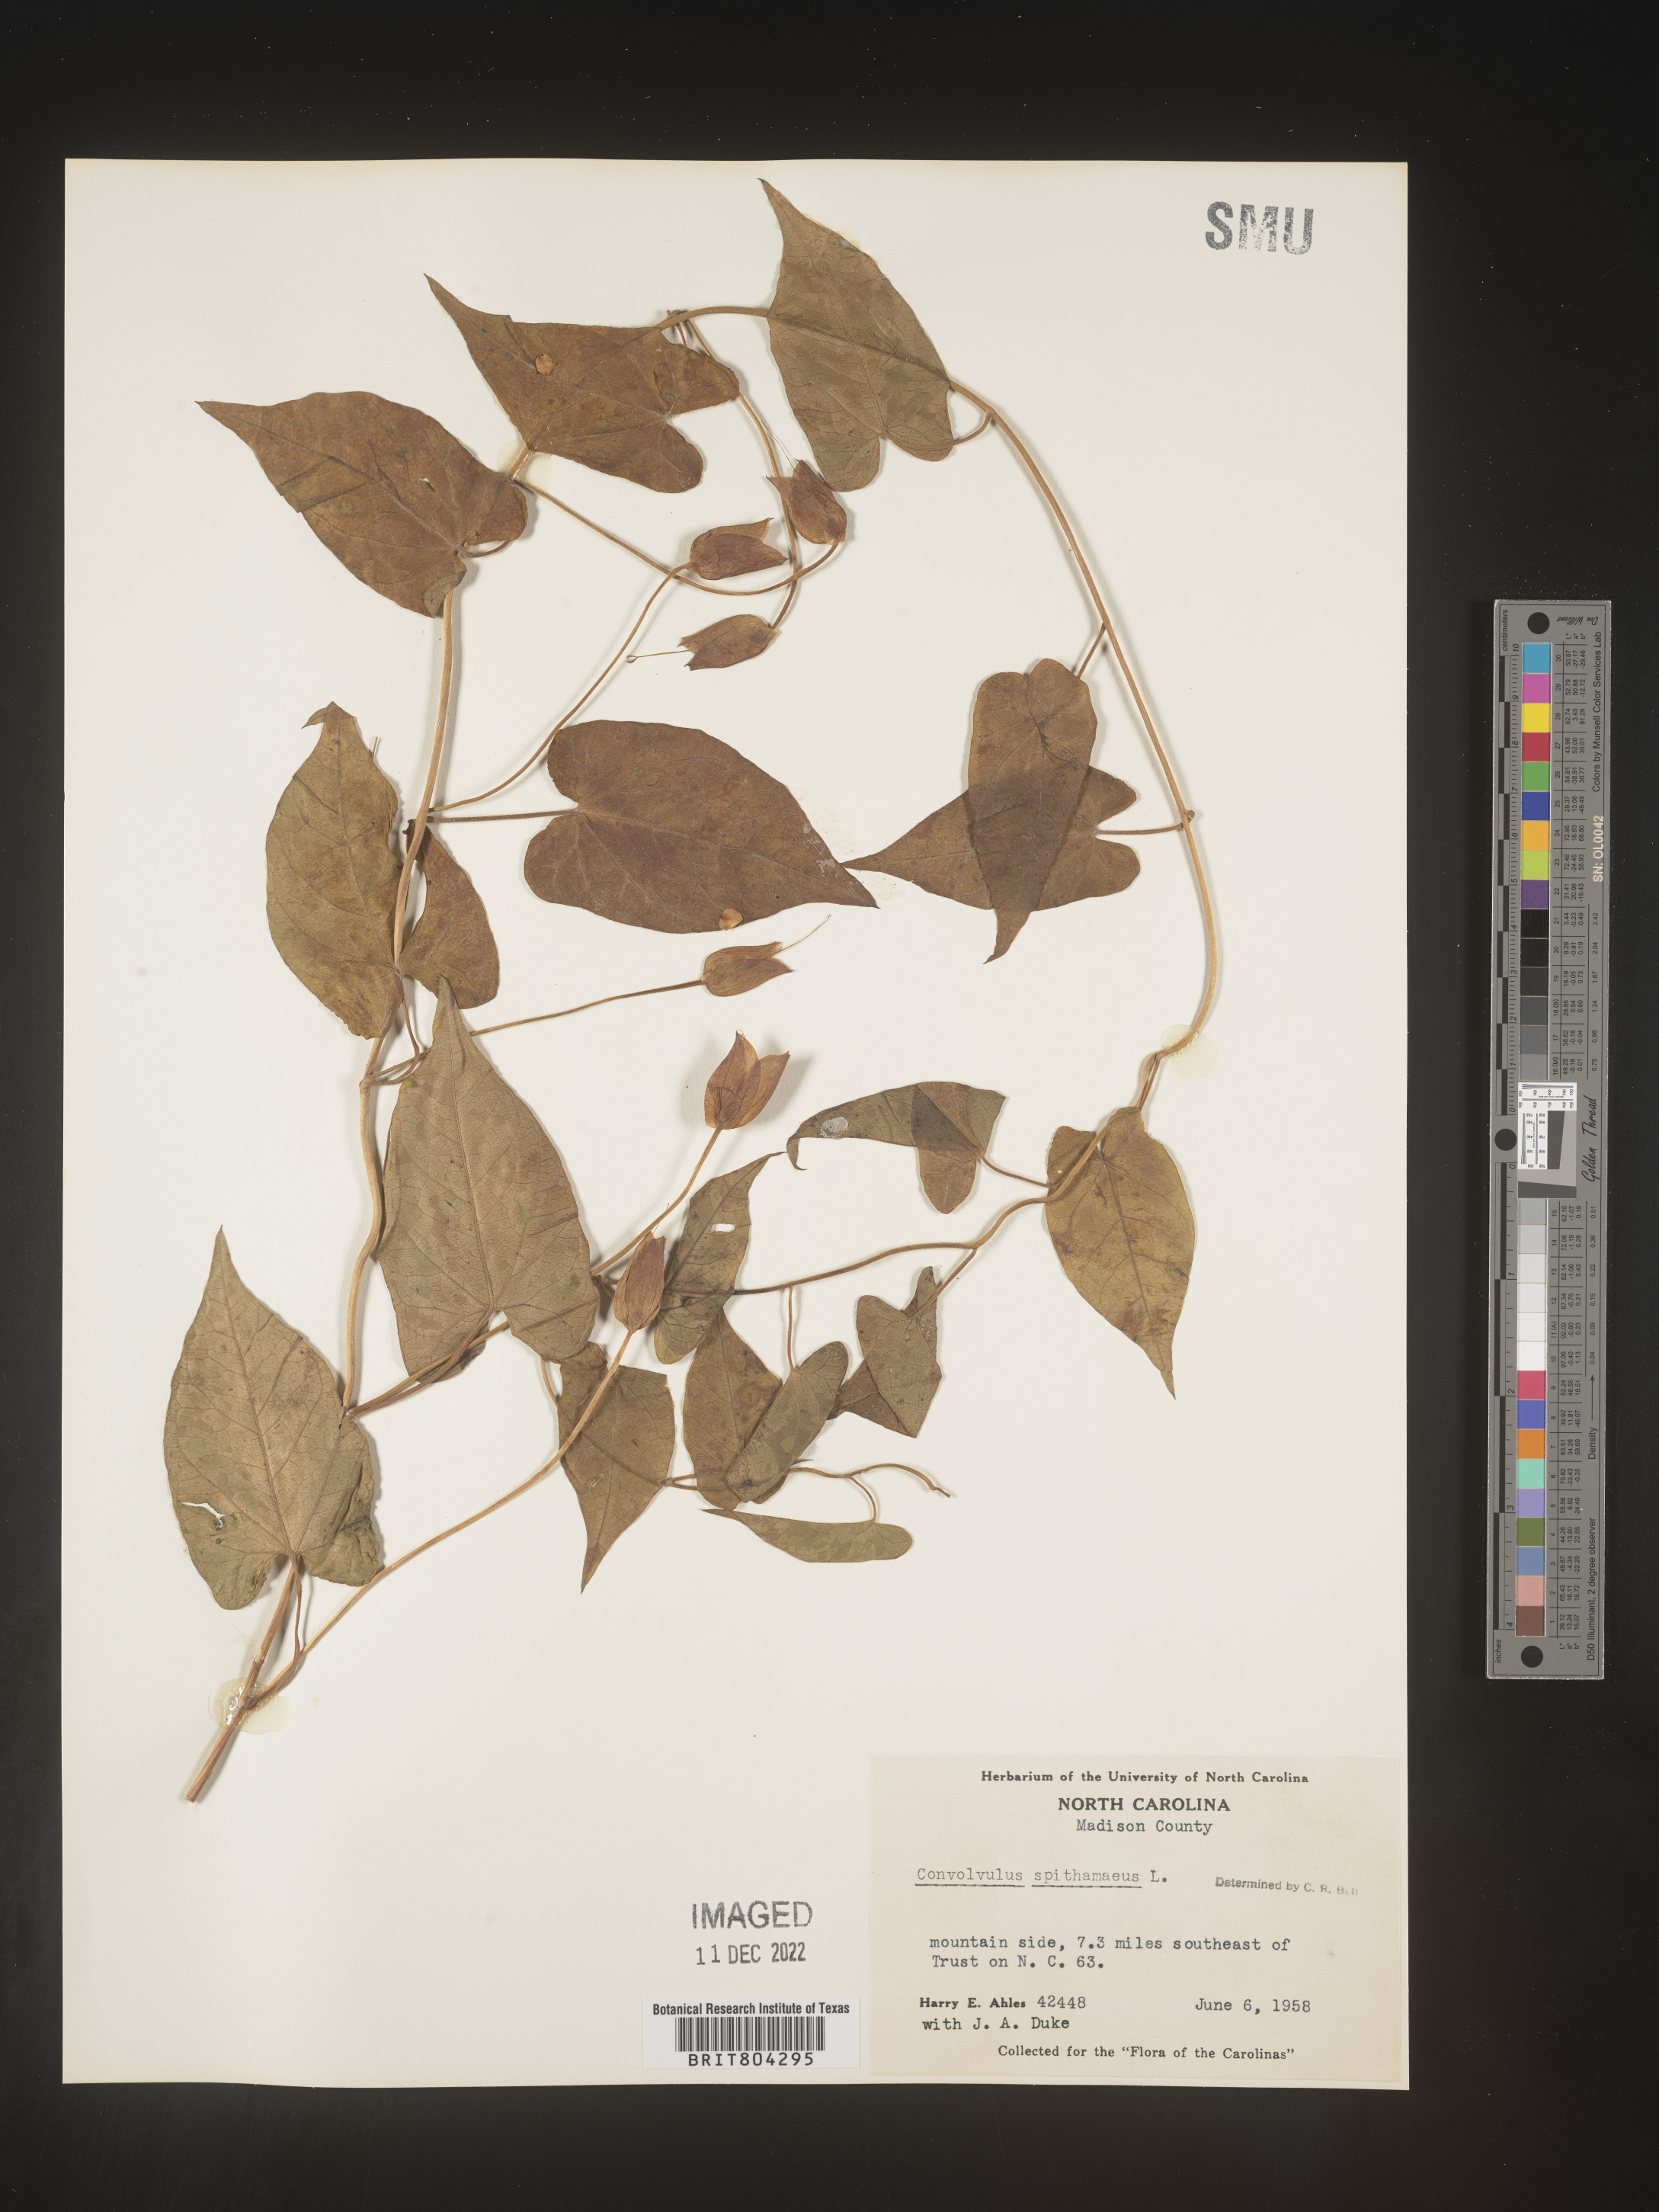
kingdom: Plantae
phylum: Tracheophyta
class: Magnoliopsida
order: Solanales
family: Convolvulaceae
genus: Calystegia
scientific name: Calystegia
